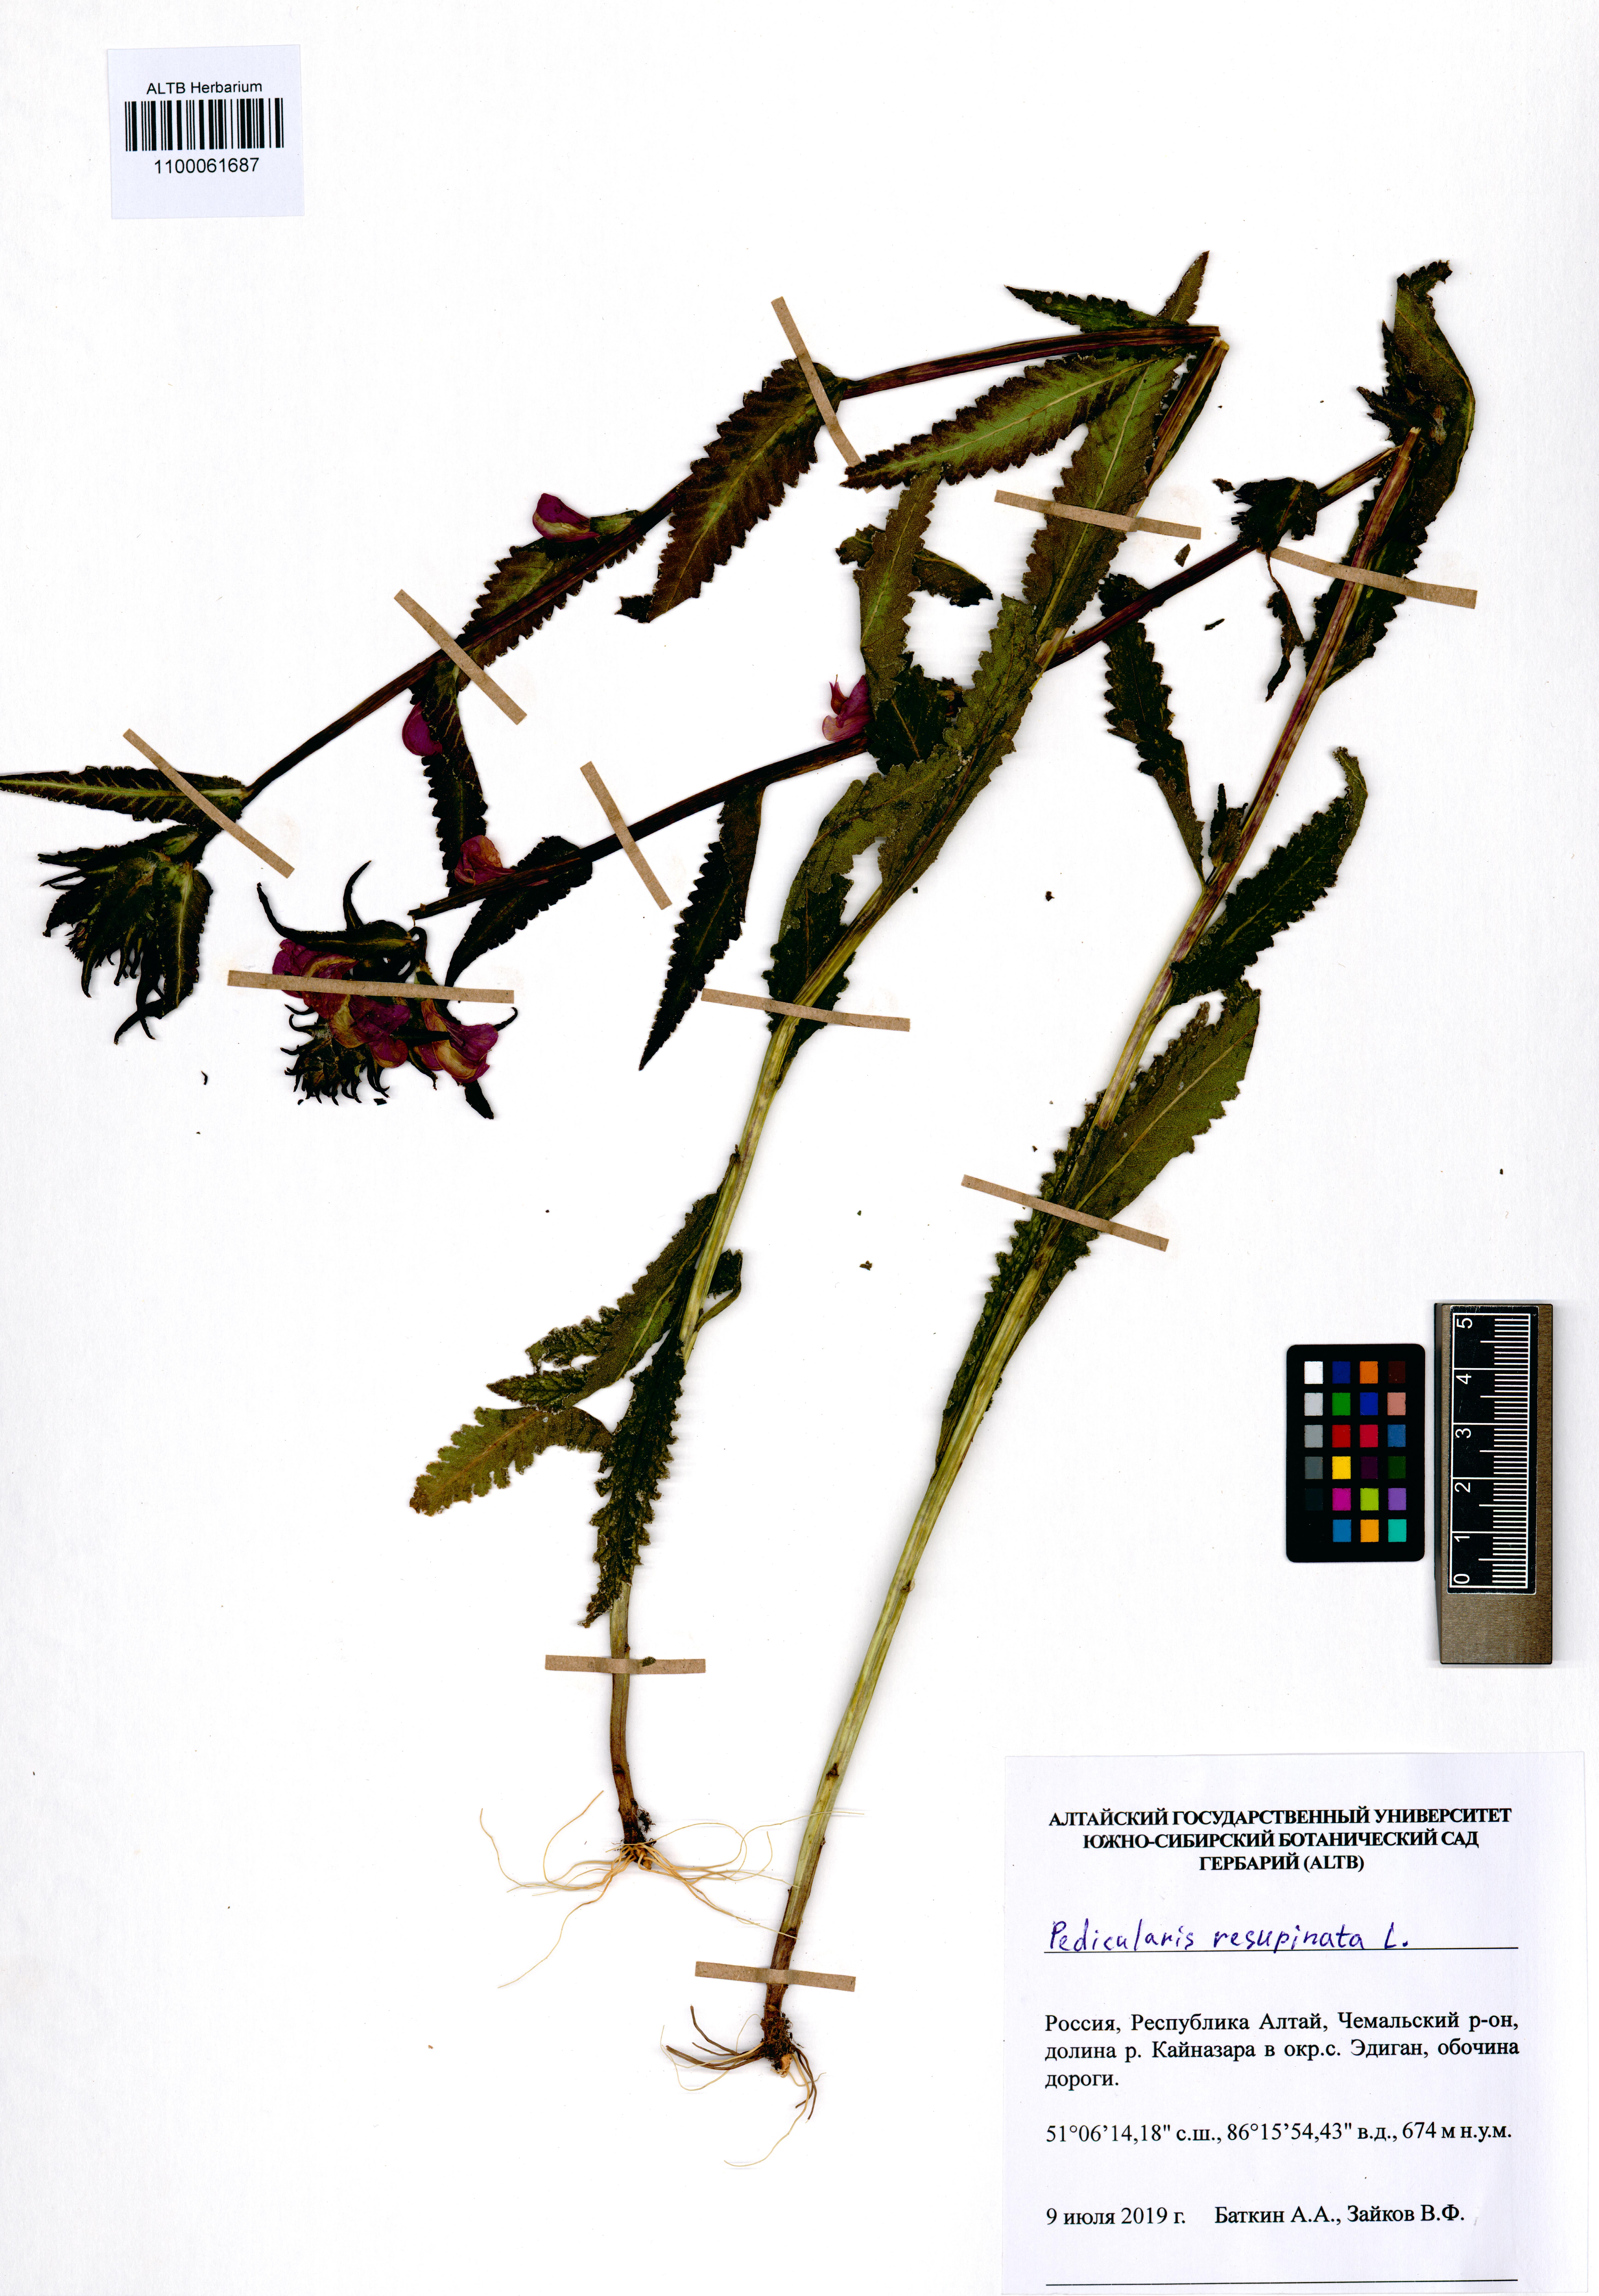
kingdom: Plantae
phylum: Tracheophyta
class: Magnoliopsida
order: Lamiales
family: Orobanchaceae
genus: Pedicularis
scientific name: Pedicularis resupinata
